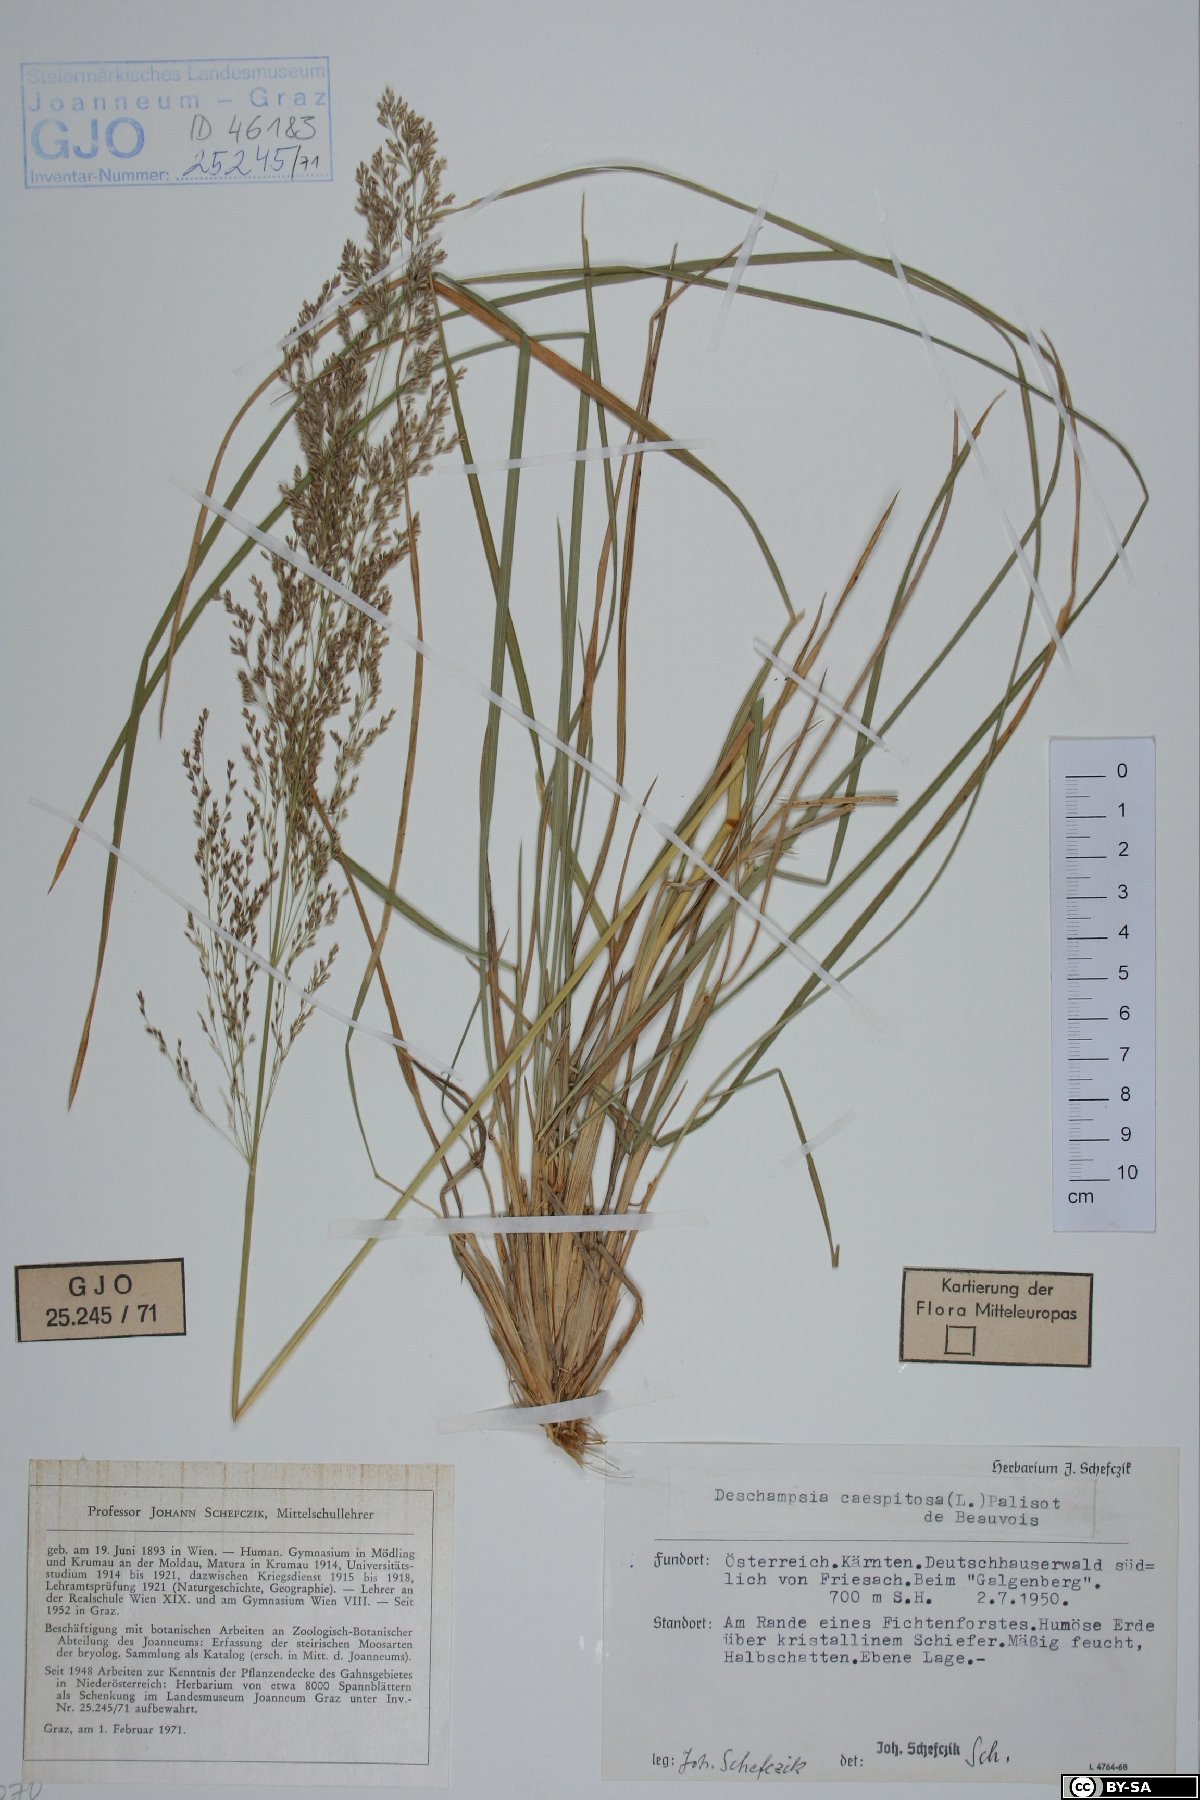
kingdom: Plantae
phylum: Tracheophyta
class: Liliopsida
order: Poales
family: Poaceae
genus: Deschampsia
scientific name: Deschampsia cespitosa
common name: Tufted hair-grass
